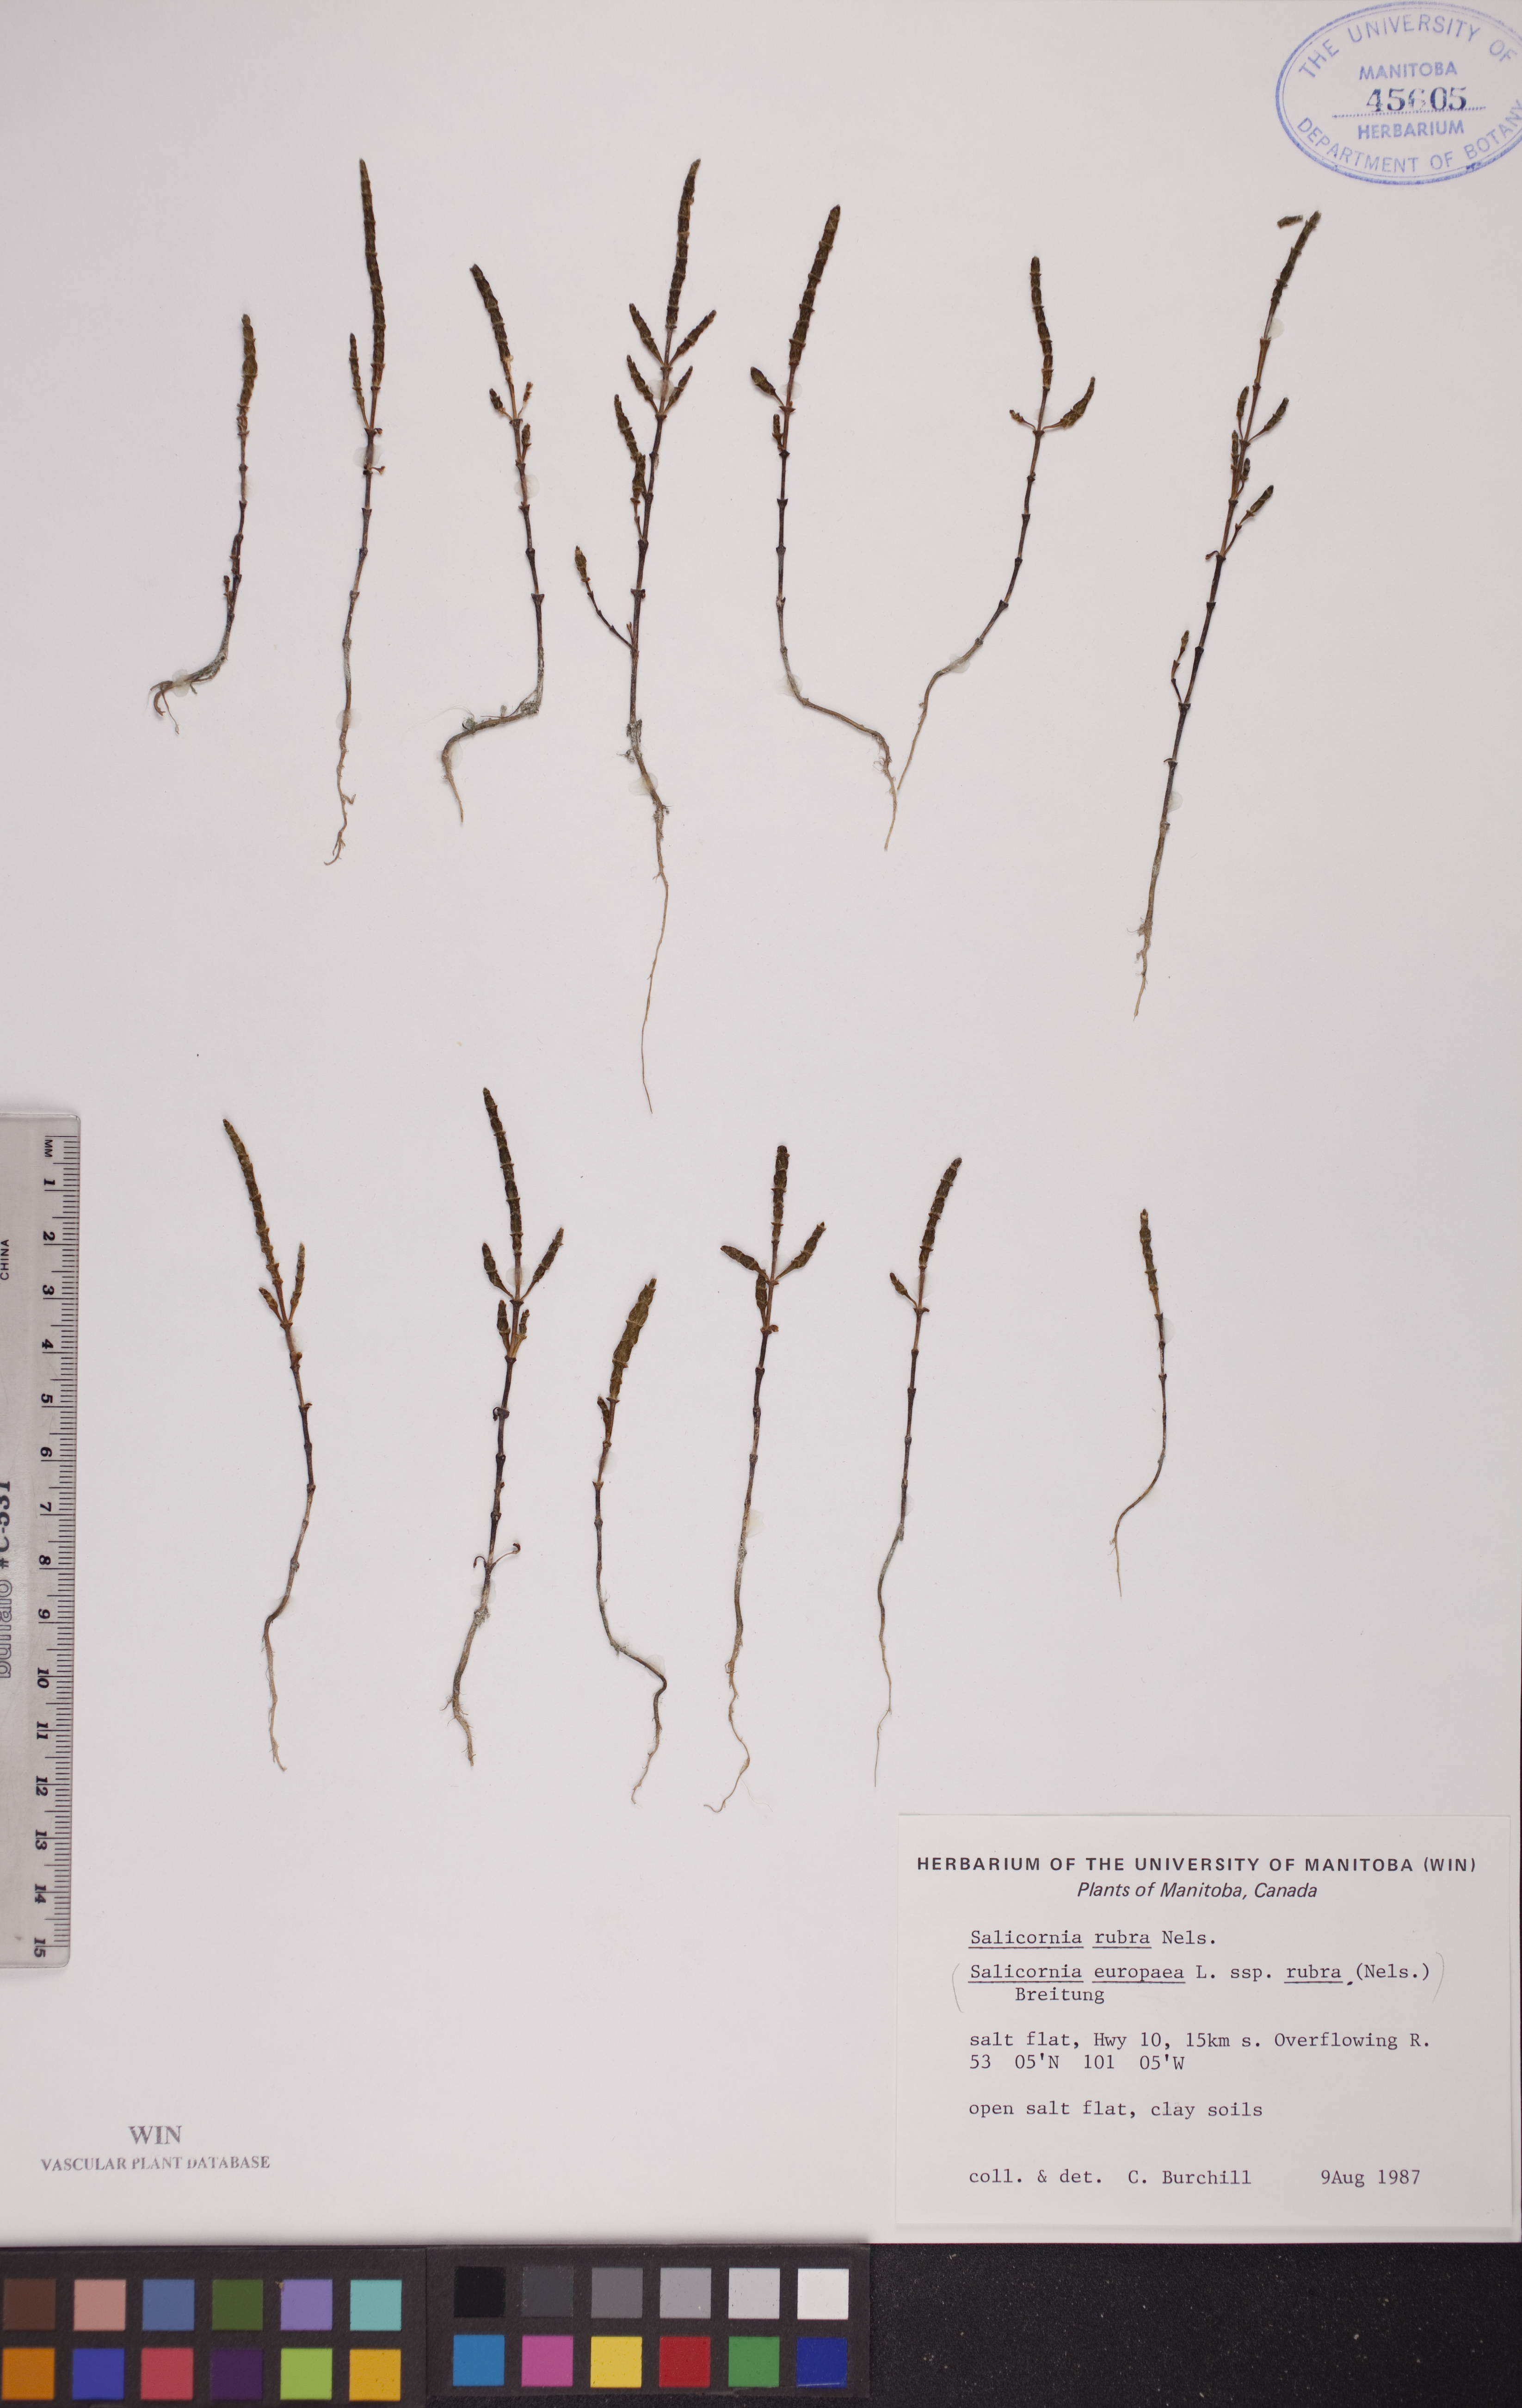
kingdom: Plantae
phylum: Tracheophyta
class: Magnoliopsida
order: Caryophyllales
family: Amaranthaceae
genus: Salicornia
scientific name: Salicornia rubra
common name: Red glasswort
